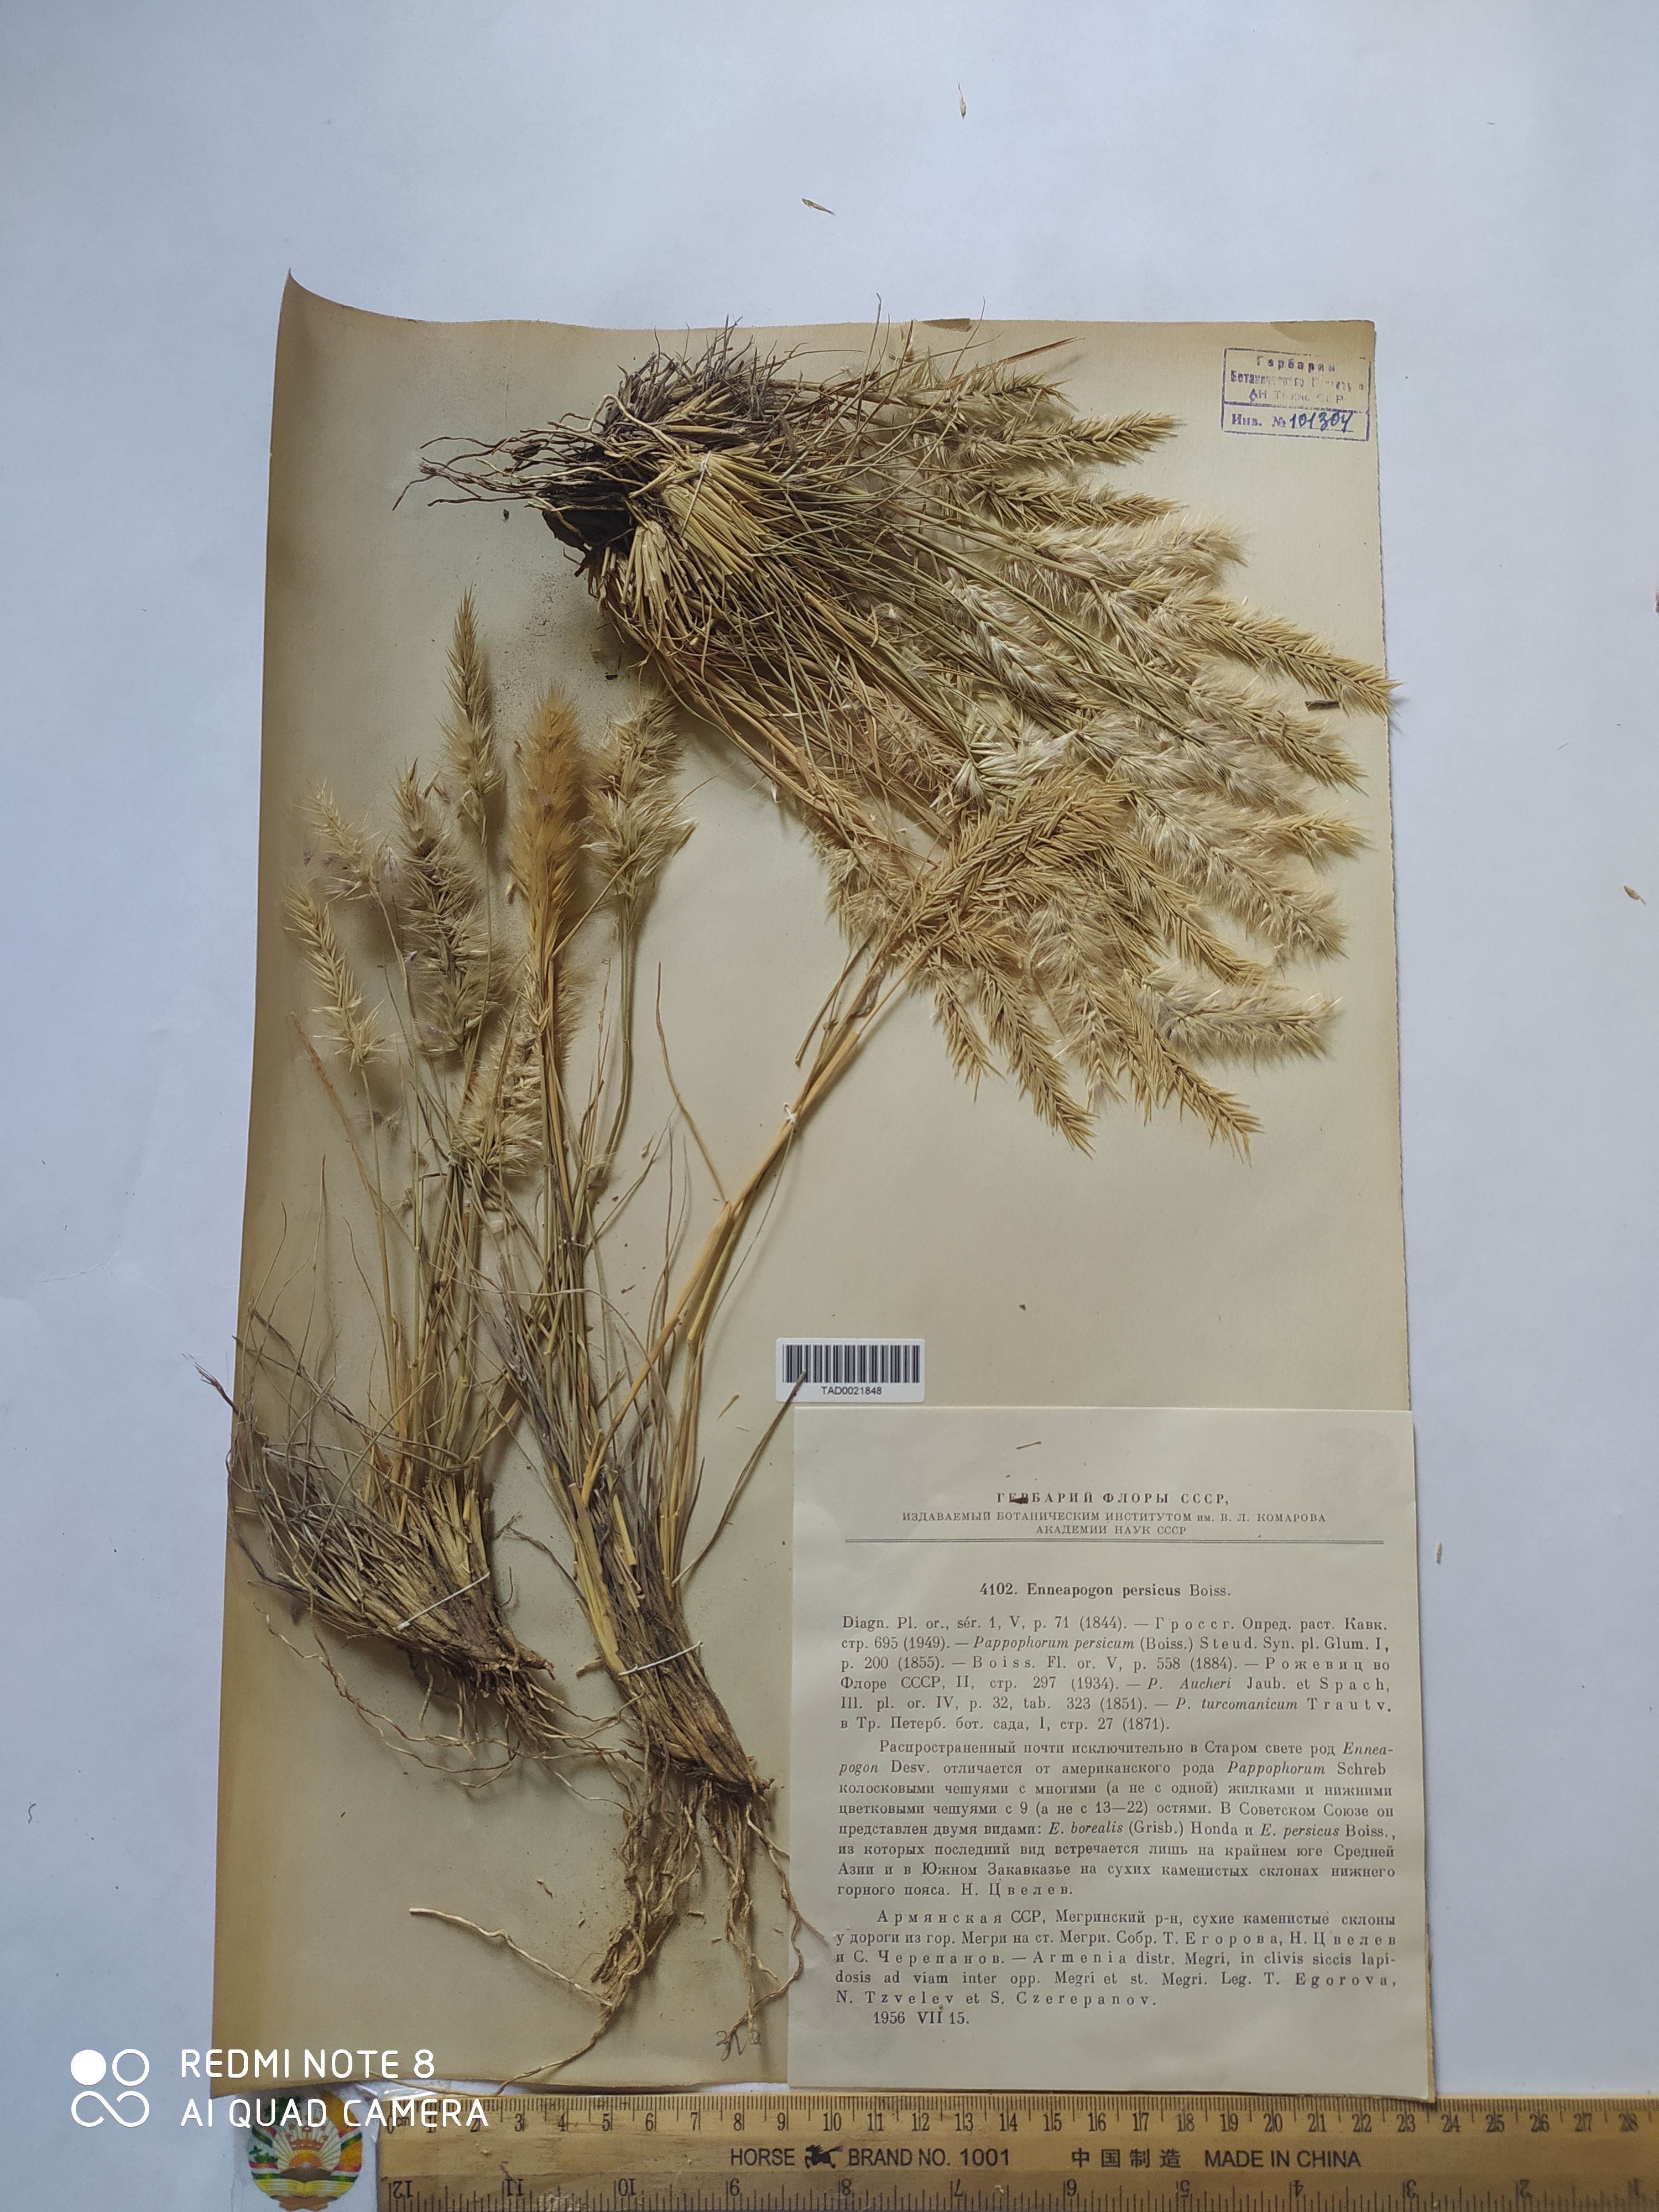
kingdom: Plantae
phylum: Tracheophyta
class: Liliopsida
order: Poales
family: Poaceae
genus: Enneapogon
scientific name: Enneapogon persicus
